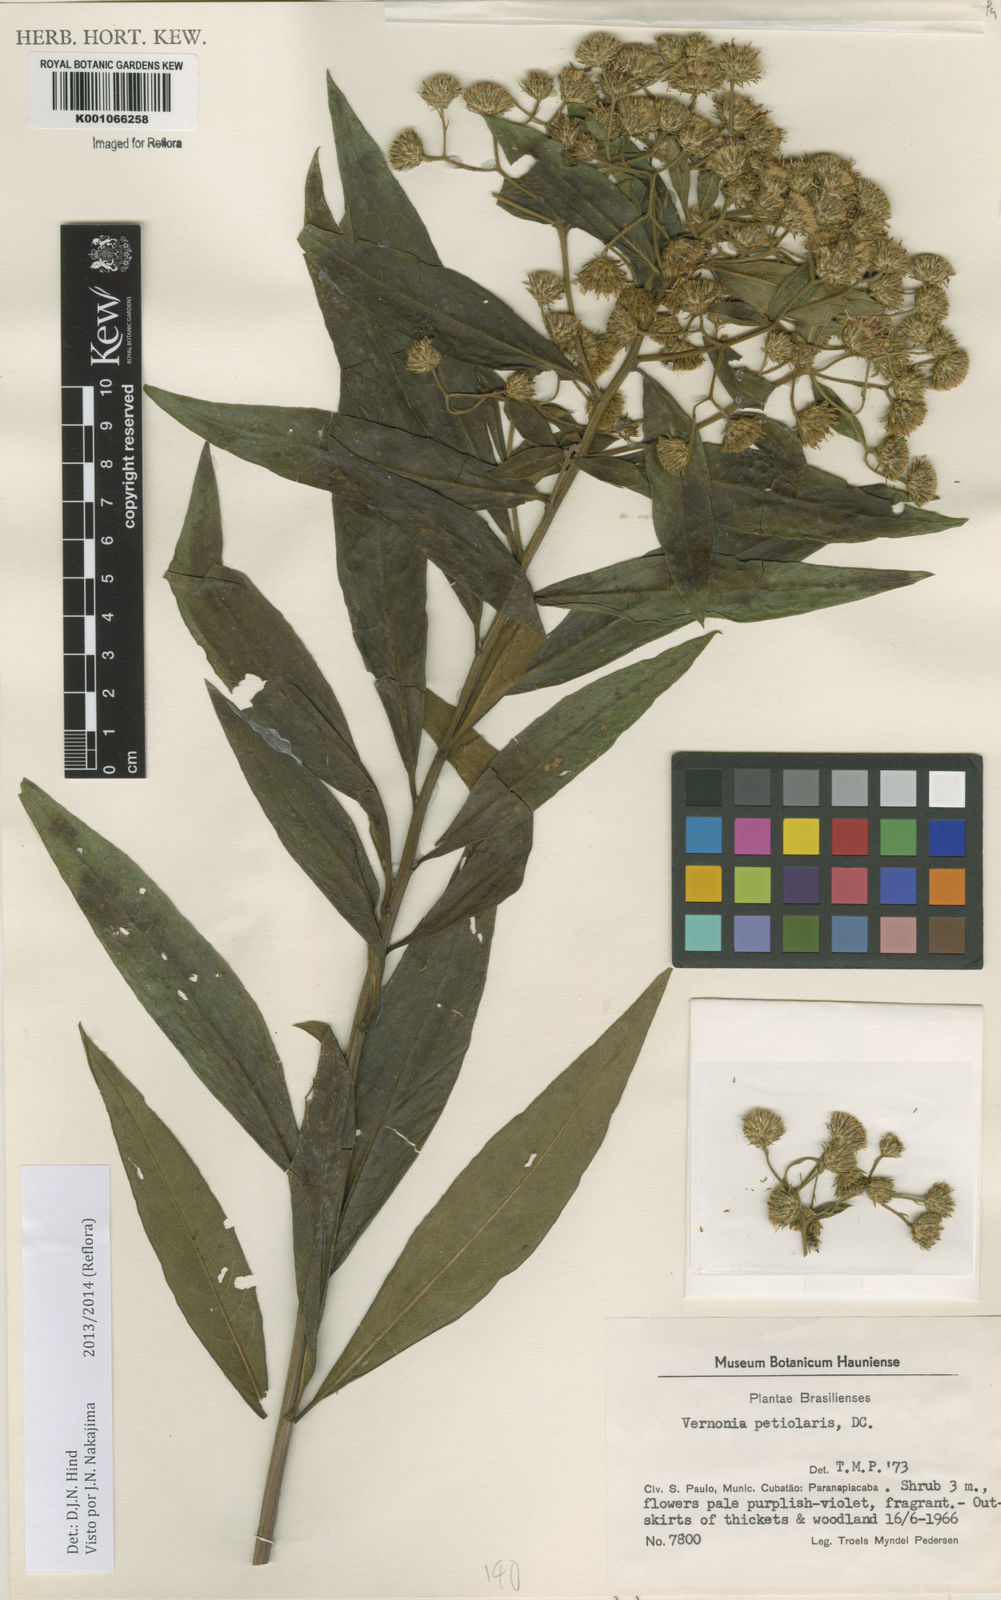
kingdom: Plantae
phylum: Tracheophyta
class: Magnoliopsida
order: Asterales
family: Asteraceae
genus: Vernonanthura
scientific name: Vernonanthura petiolaris
